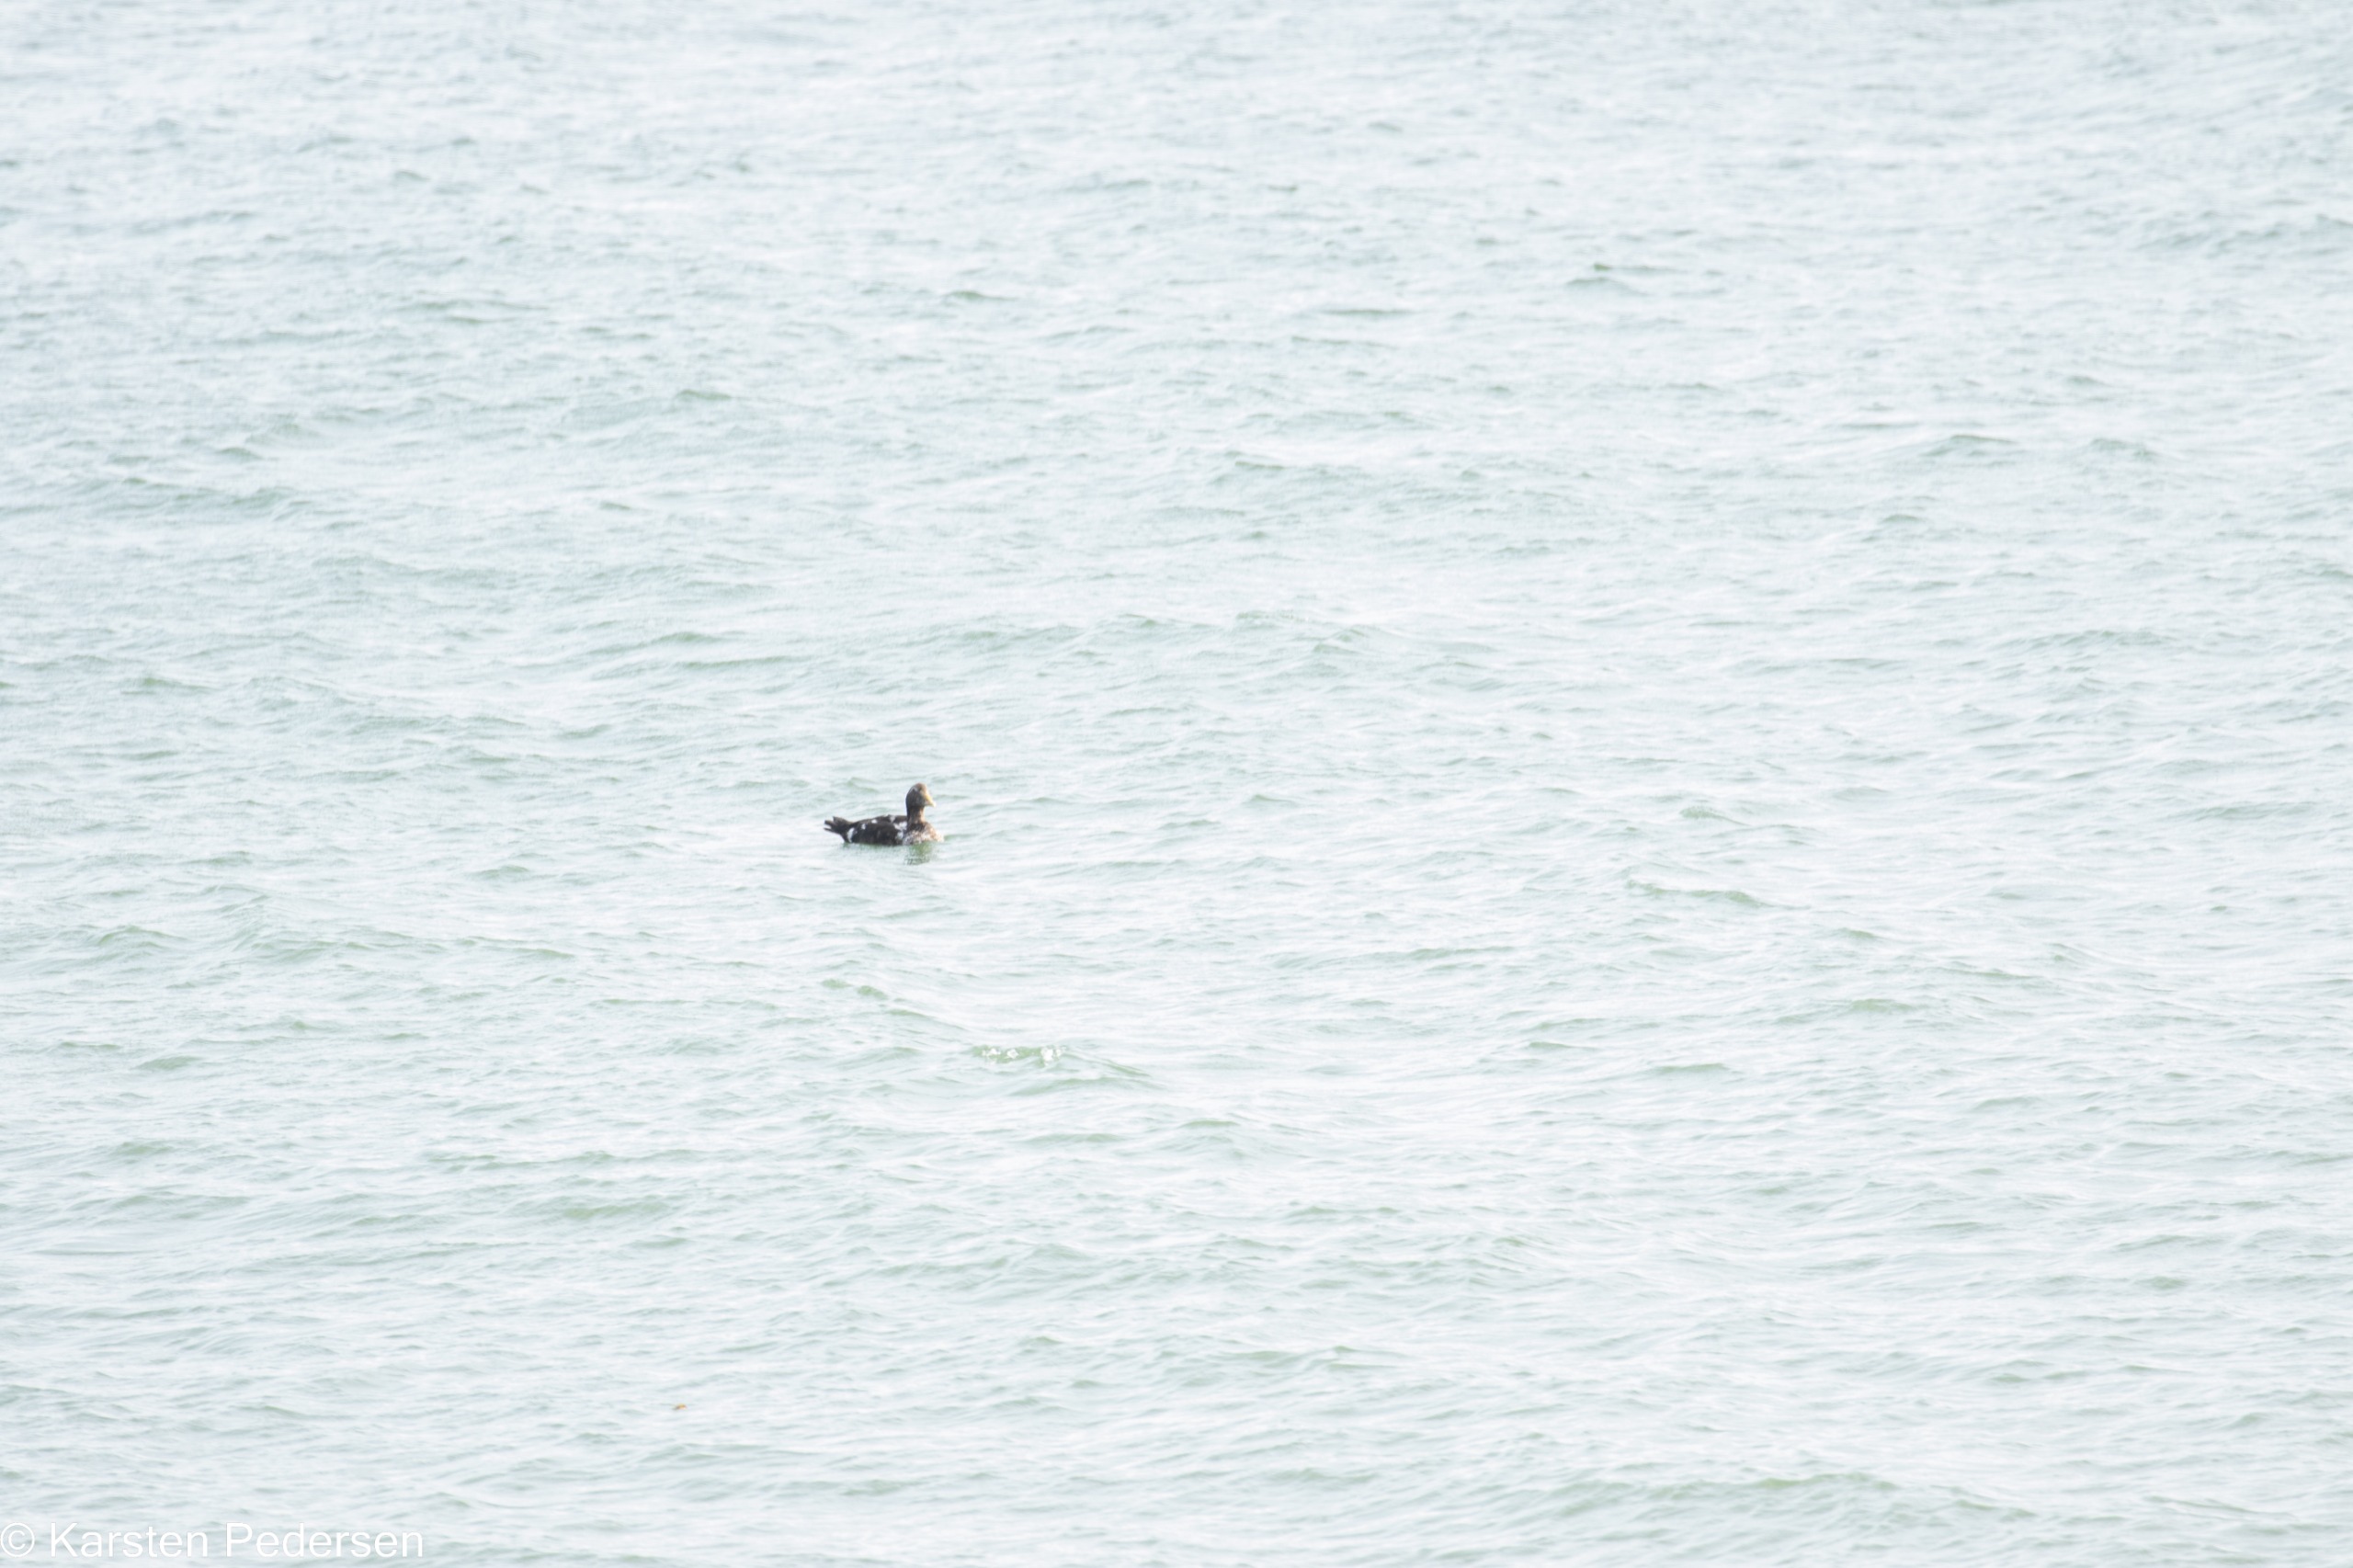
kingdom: Animalia
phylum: Chordata
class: Aves
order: Anseriformes
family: Anatidae
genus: Somateria
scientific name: Somateria mollissima
